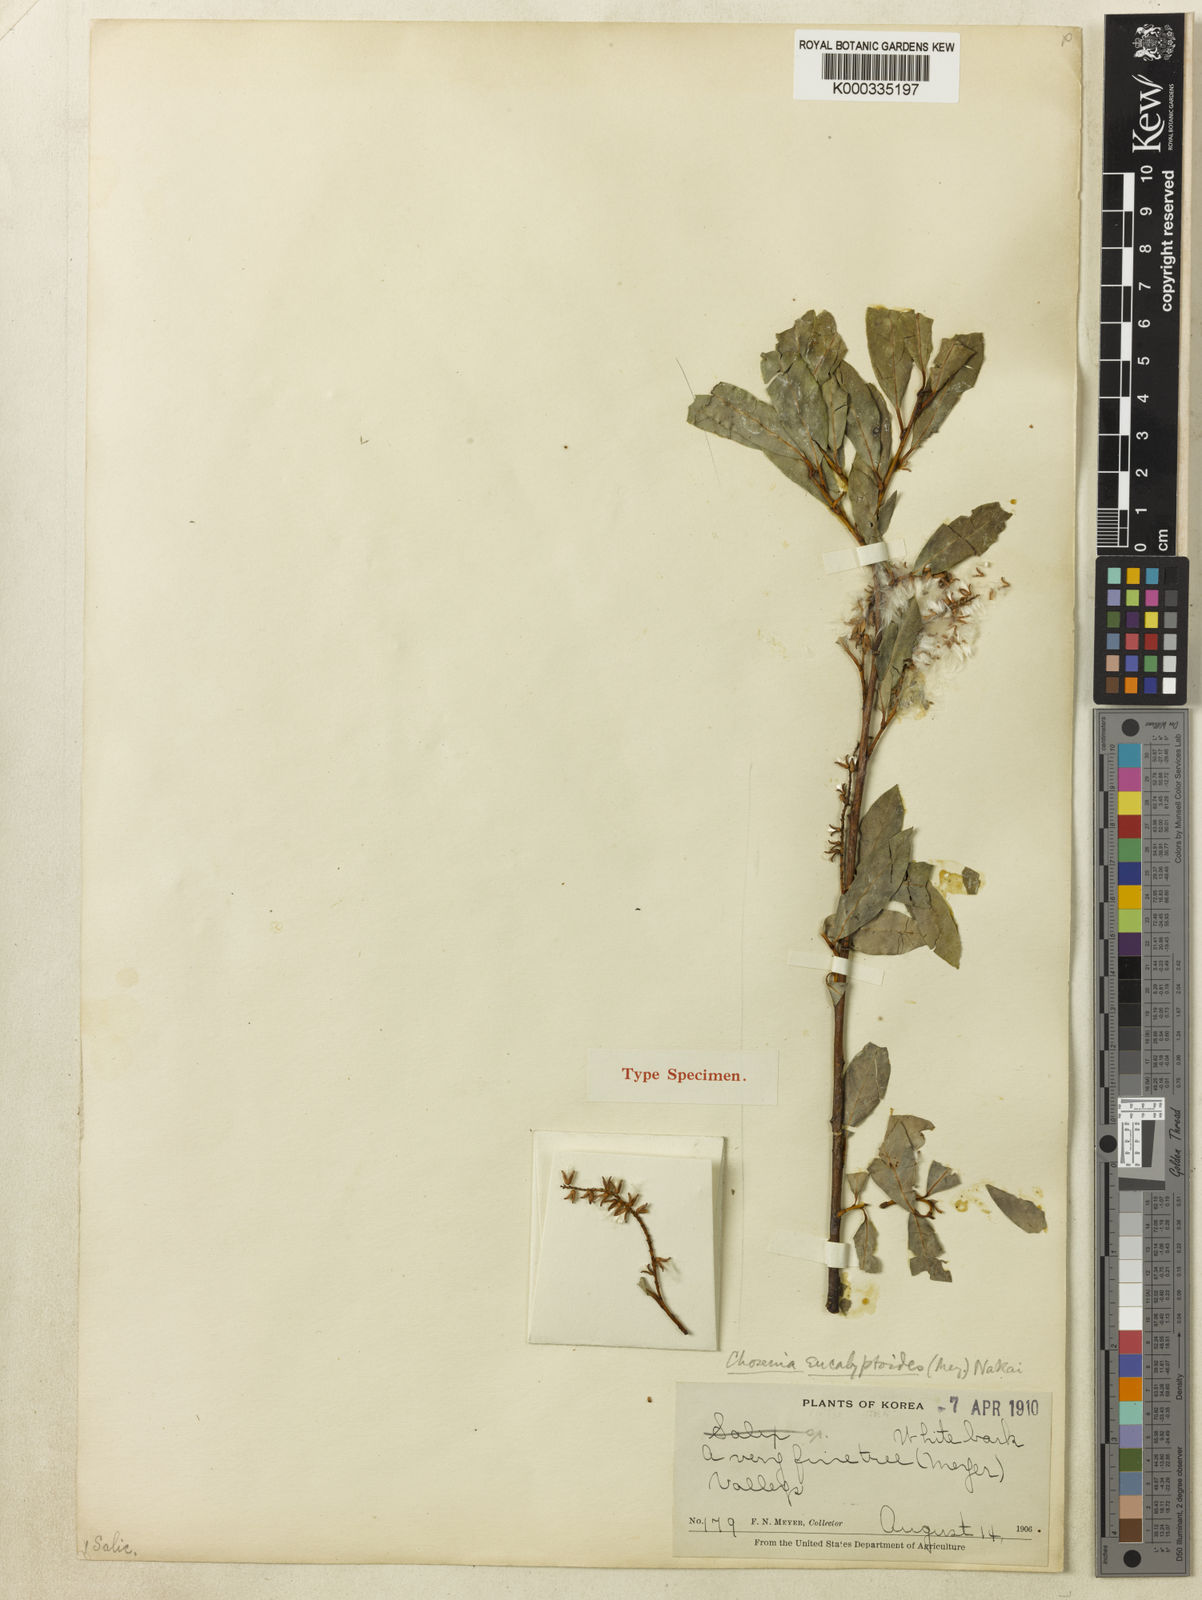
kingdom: Plantae
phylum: Tracheophyta
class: Magnoliopsida
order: Malpighiales
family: Salicaceae
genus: Salix
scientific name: Salix
